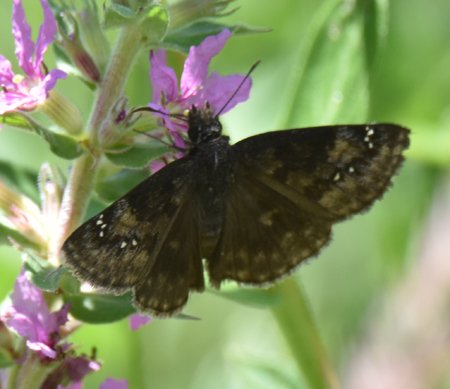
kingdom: Animalia
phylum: Arthropoda
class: Insecta
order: Lepidoptera
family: Hesperiidae
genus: Gesta
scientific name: Gesta
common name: Wild Indigo Duskywing
